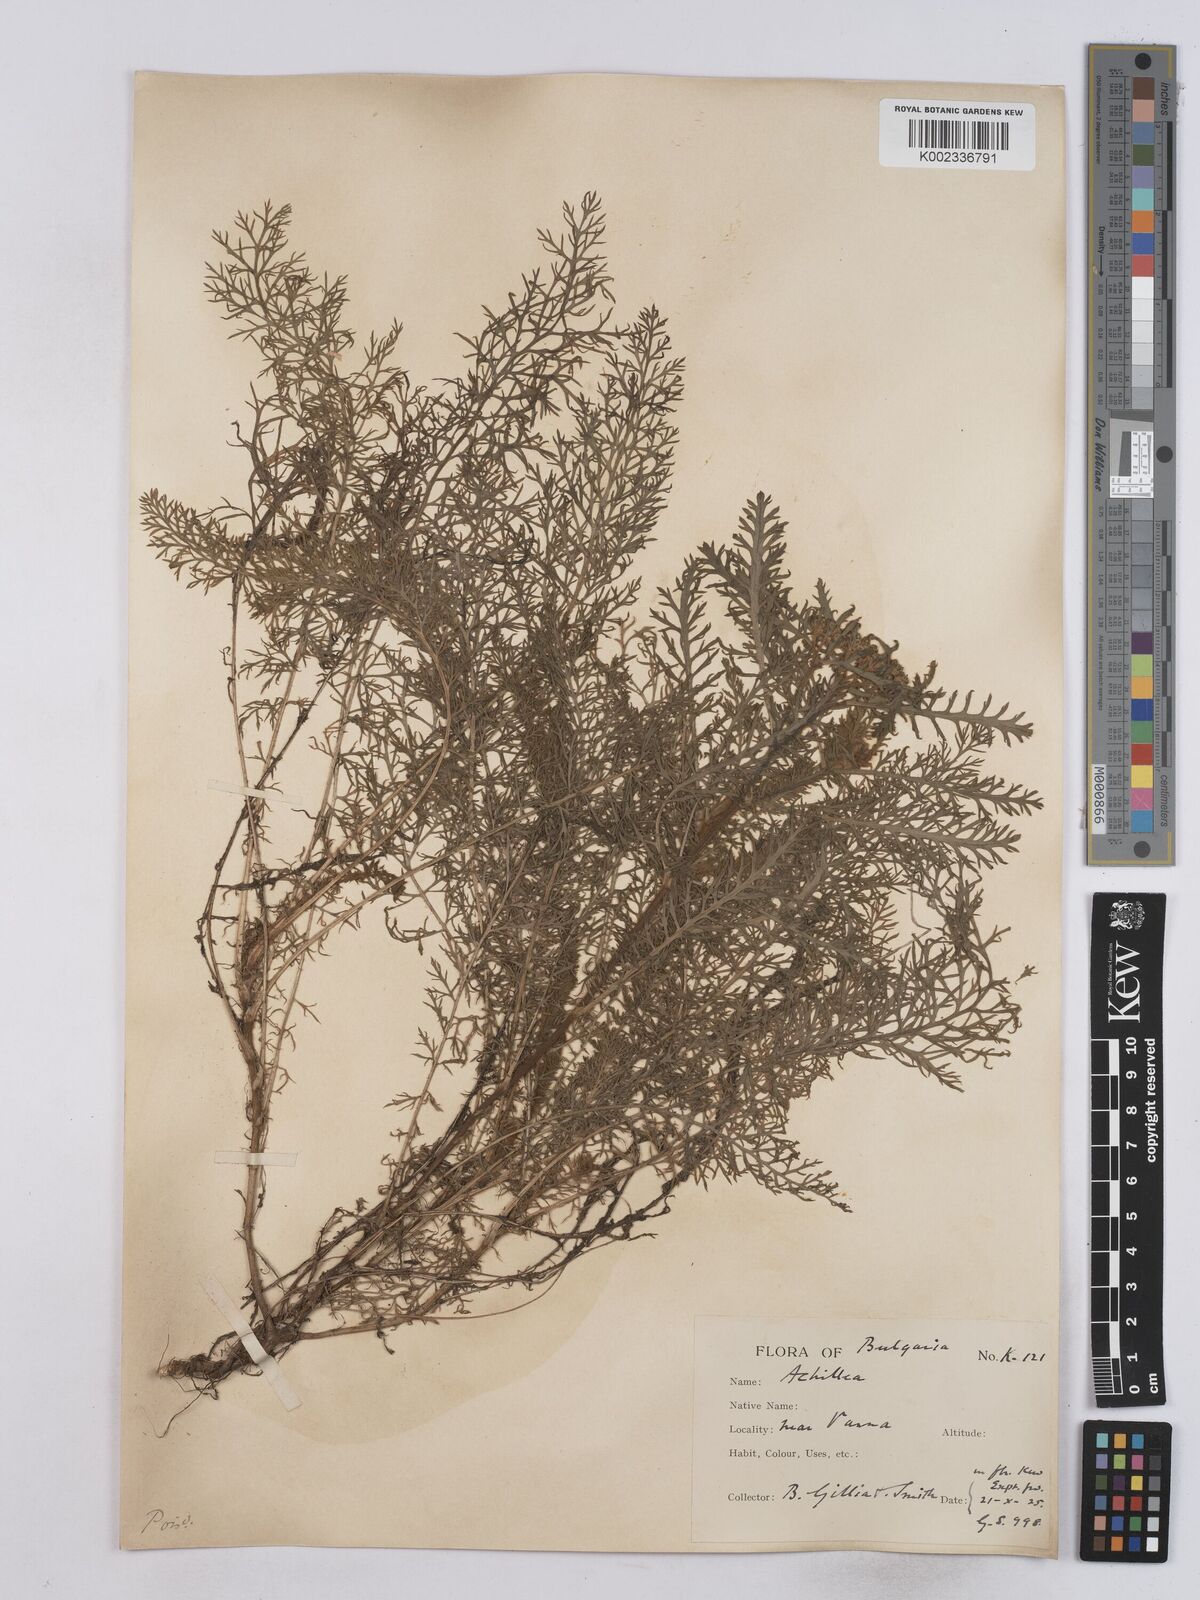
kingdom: Plantae
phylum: Tracheophyta
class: Magnoliopsida
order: Asterales
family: Asteraceae
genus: Achillea
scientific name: Achillea crithmifolia
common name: Yarrow
